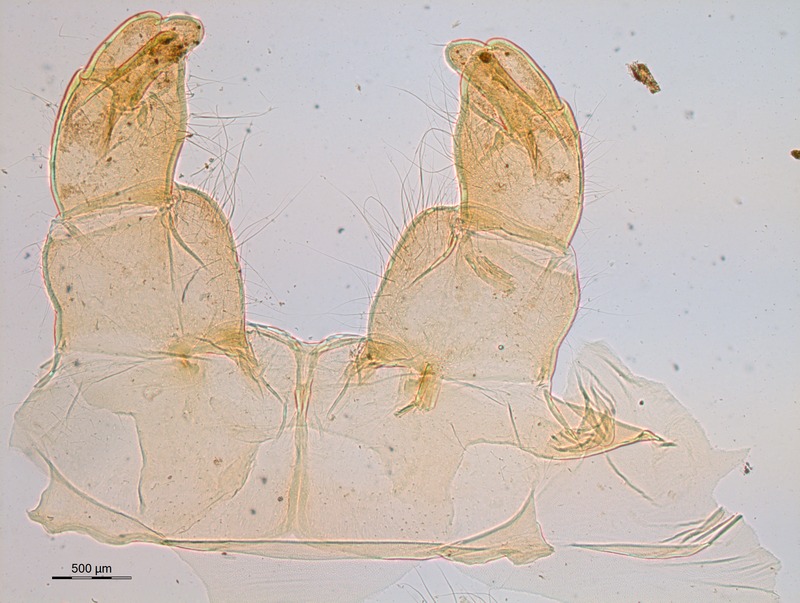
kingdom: Animalia
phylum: Arthropoda
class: Diplopoda
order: Sphaerotheriida
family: Zephroniidae
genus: Sphaeropoeus
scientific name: Sphaeropoeus
